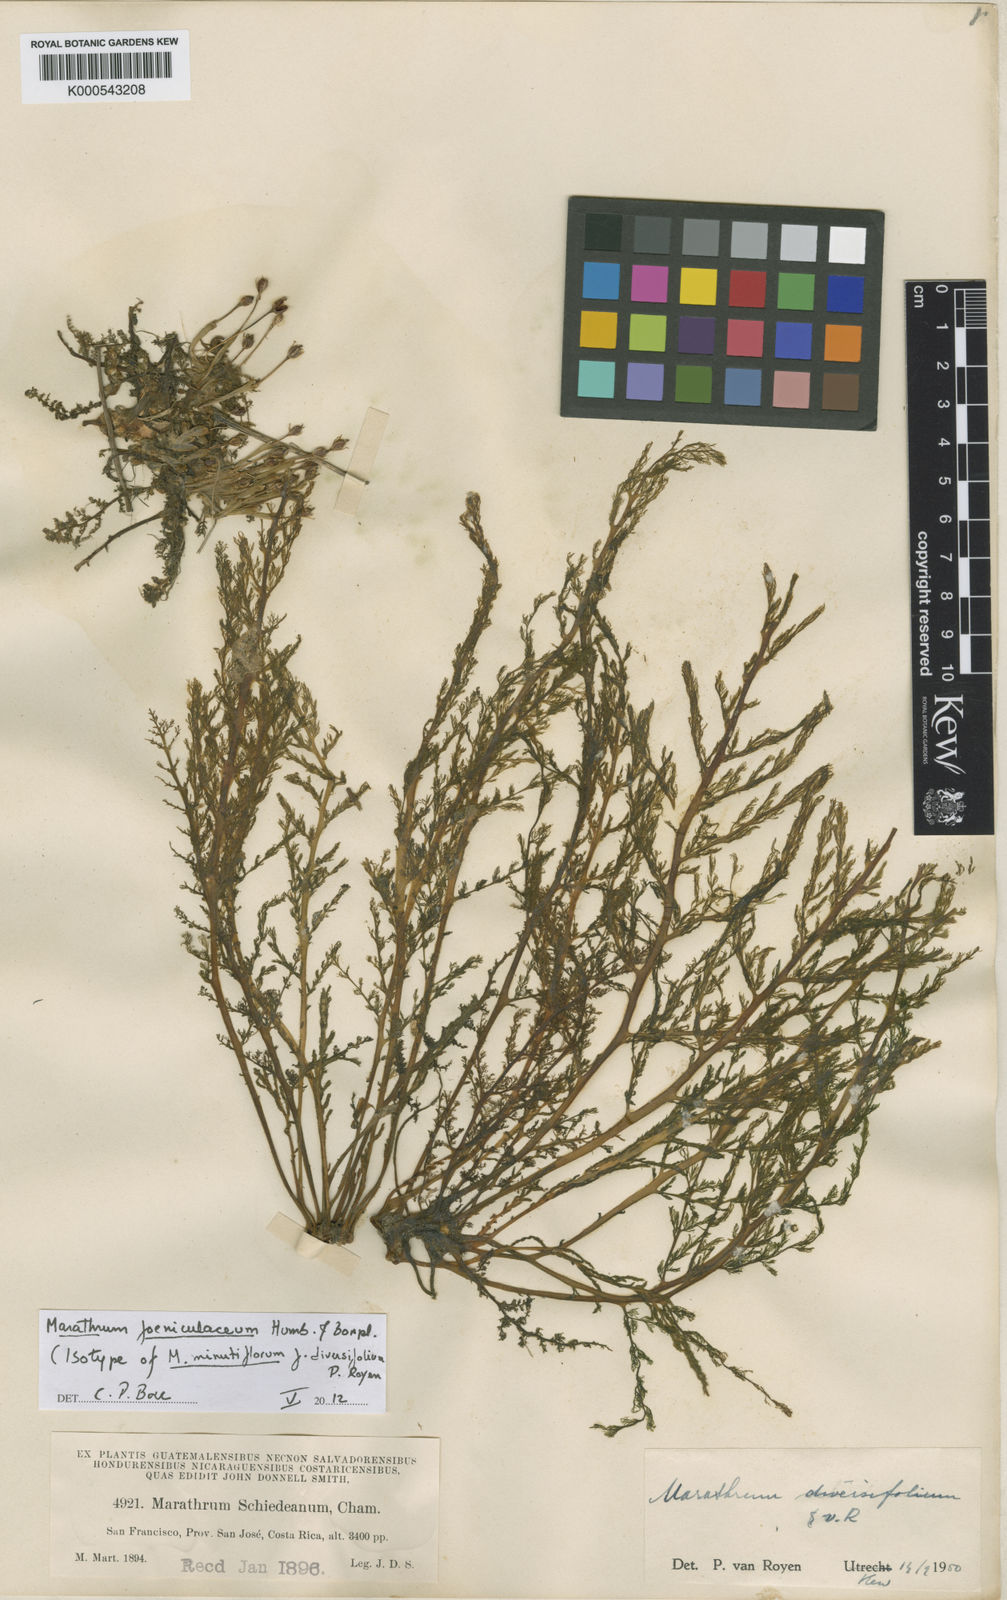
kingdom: Plantae
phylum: Tracheophyta
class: Magnoliopsida
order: Malpighiales
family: Podostemaceae
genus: Marathrum
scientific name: Marathrum foeniculaceum
